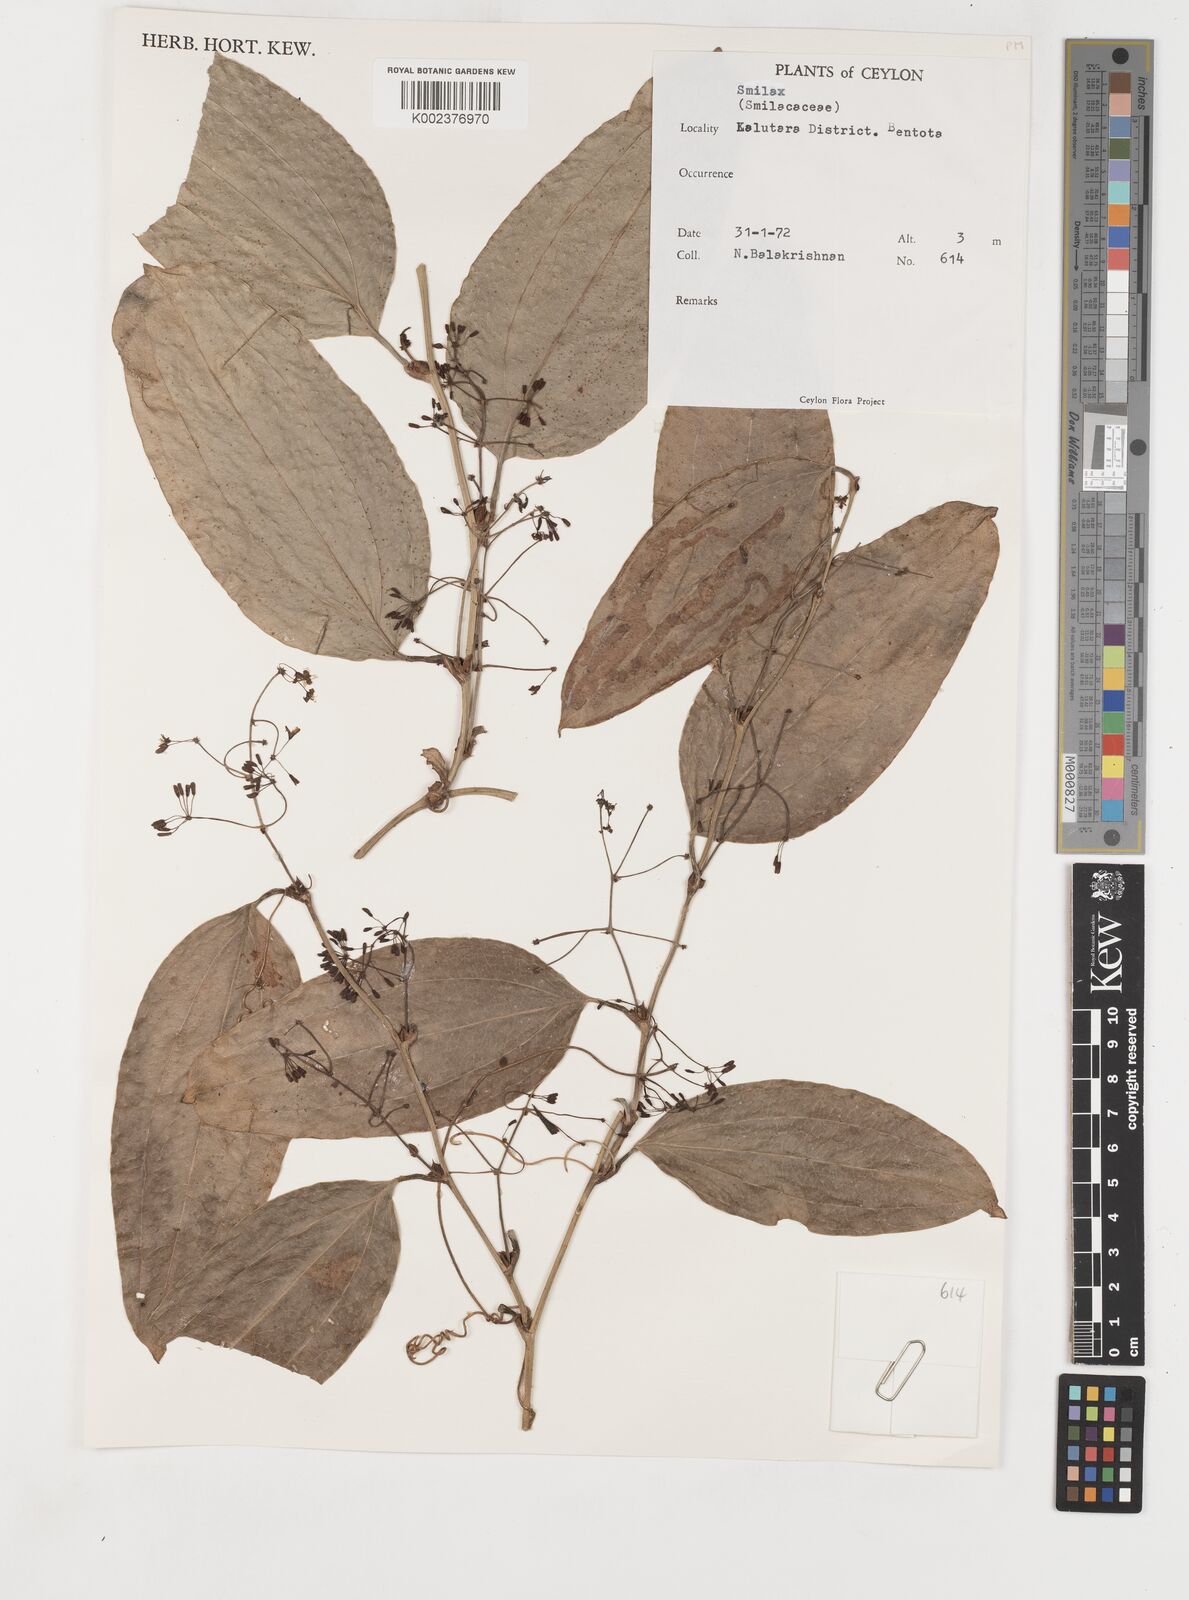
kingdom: Plantae
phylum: Tracheophyta
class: Liliopsida
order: Liliales
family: Smilacaceae
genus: Smilax
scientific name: Smilax
